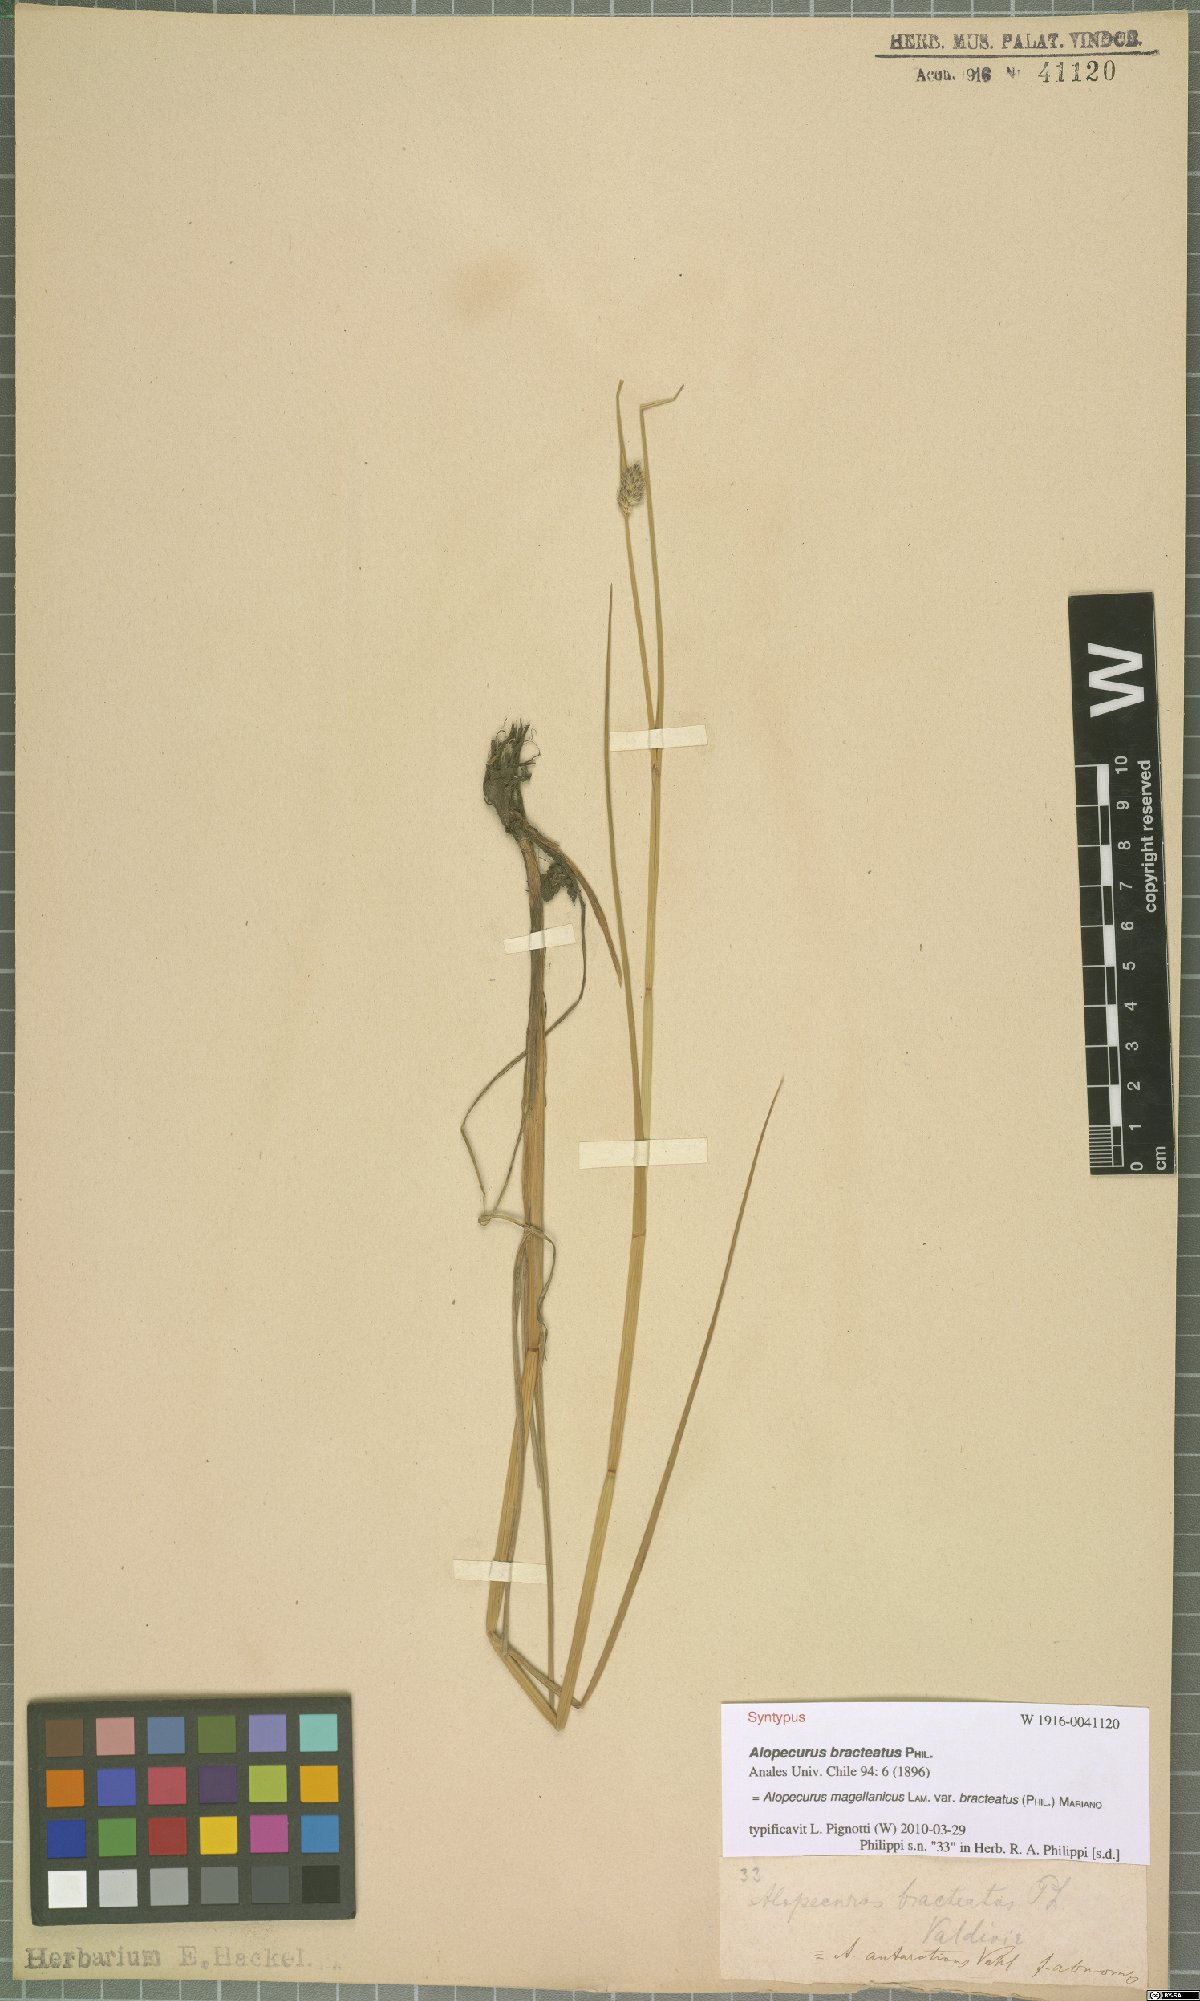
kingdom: Plantae
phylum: Tracheophyta
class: Liliopsida
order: Poales
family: Poaceae
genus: Alopecurus
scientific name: Alopecurus magellanicus
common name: Alpine foxtail
